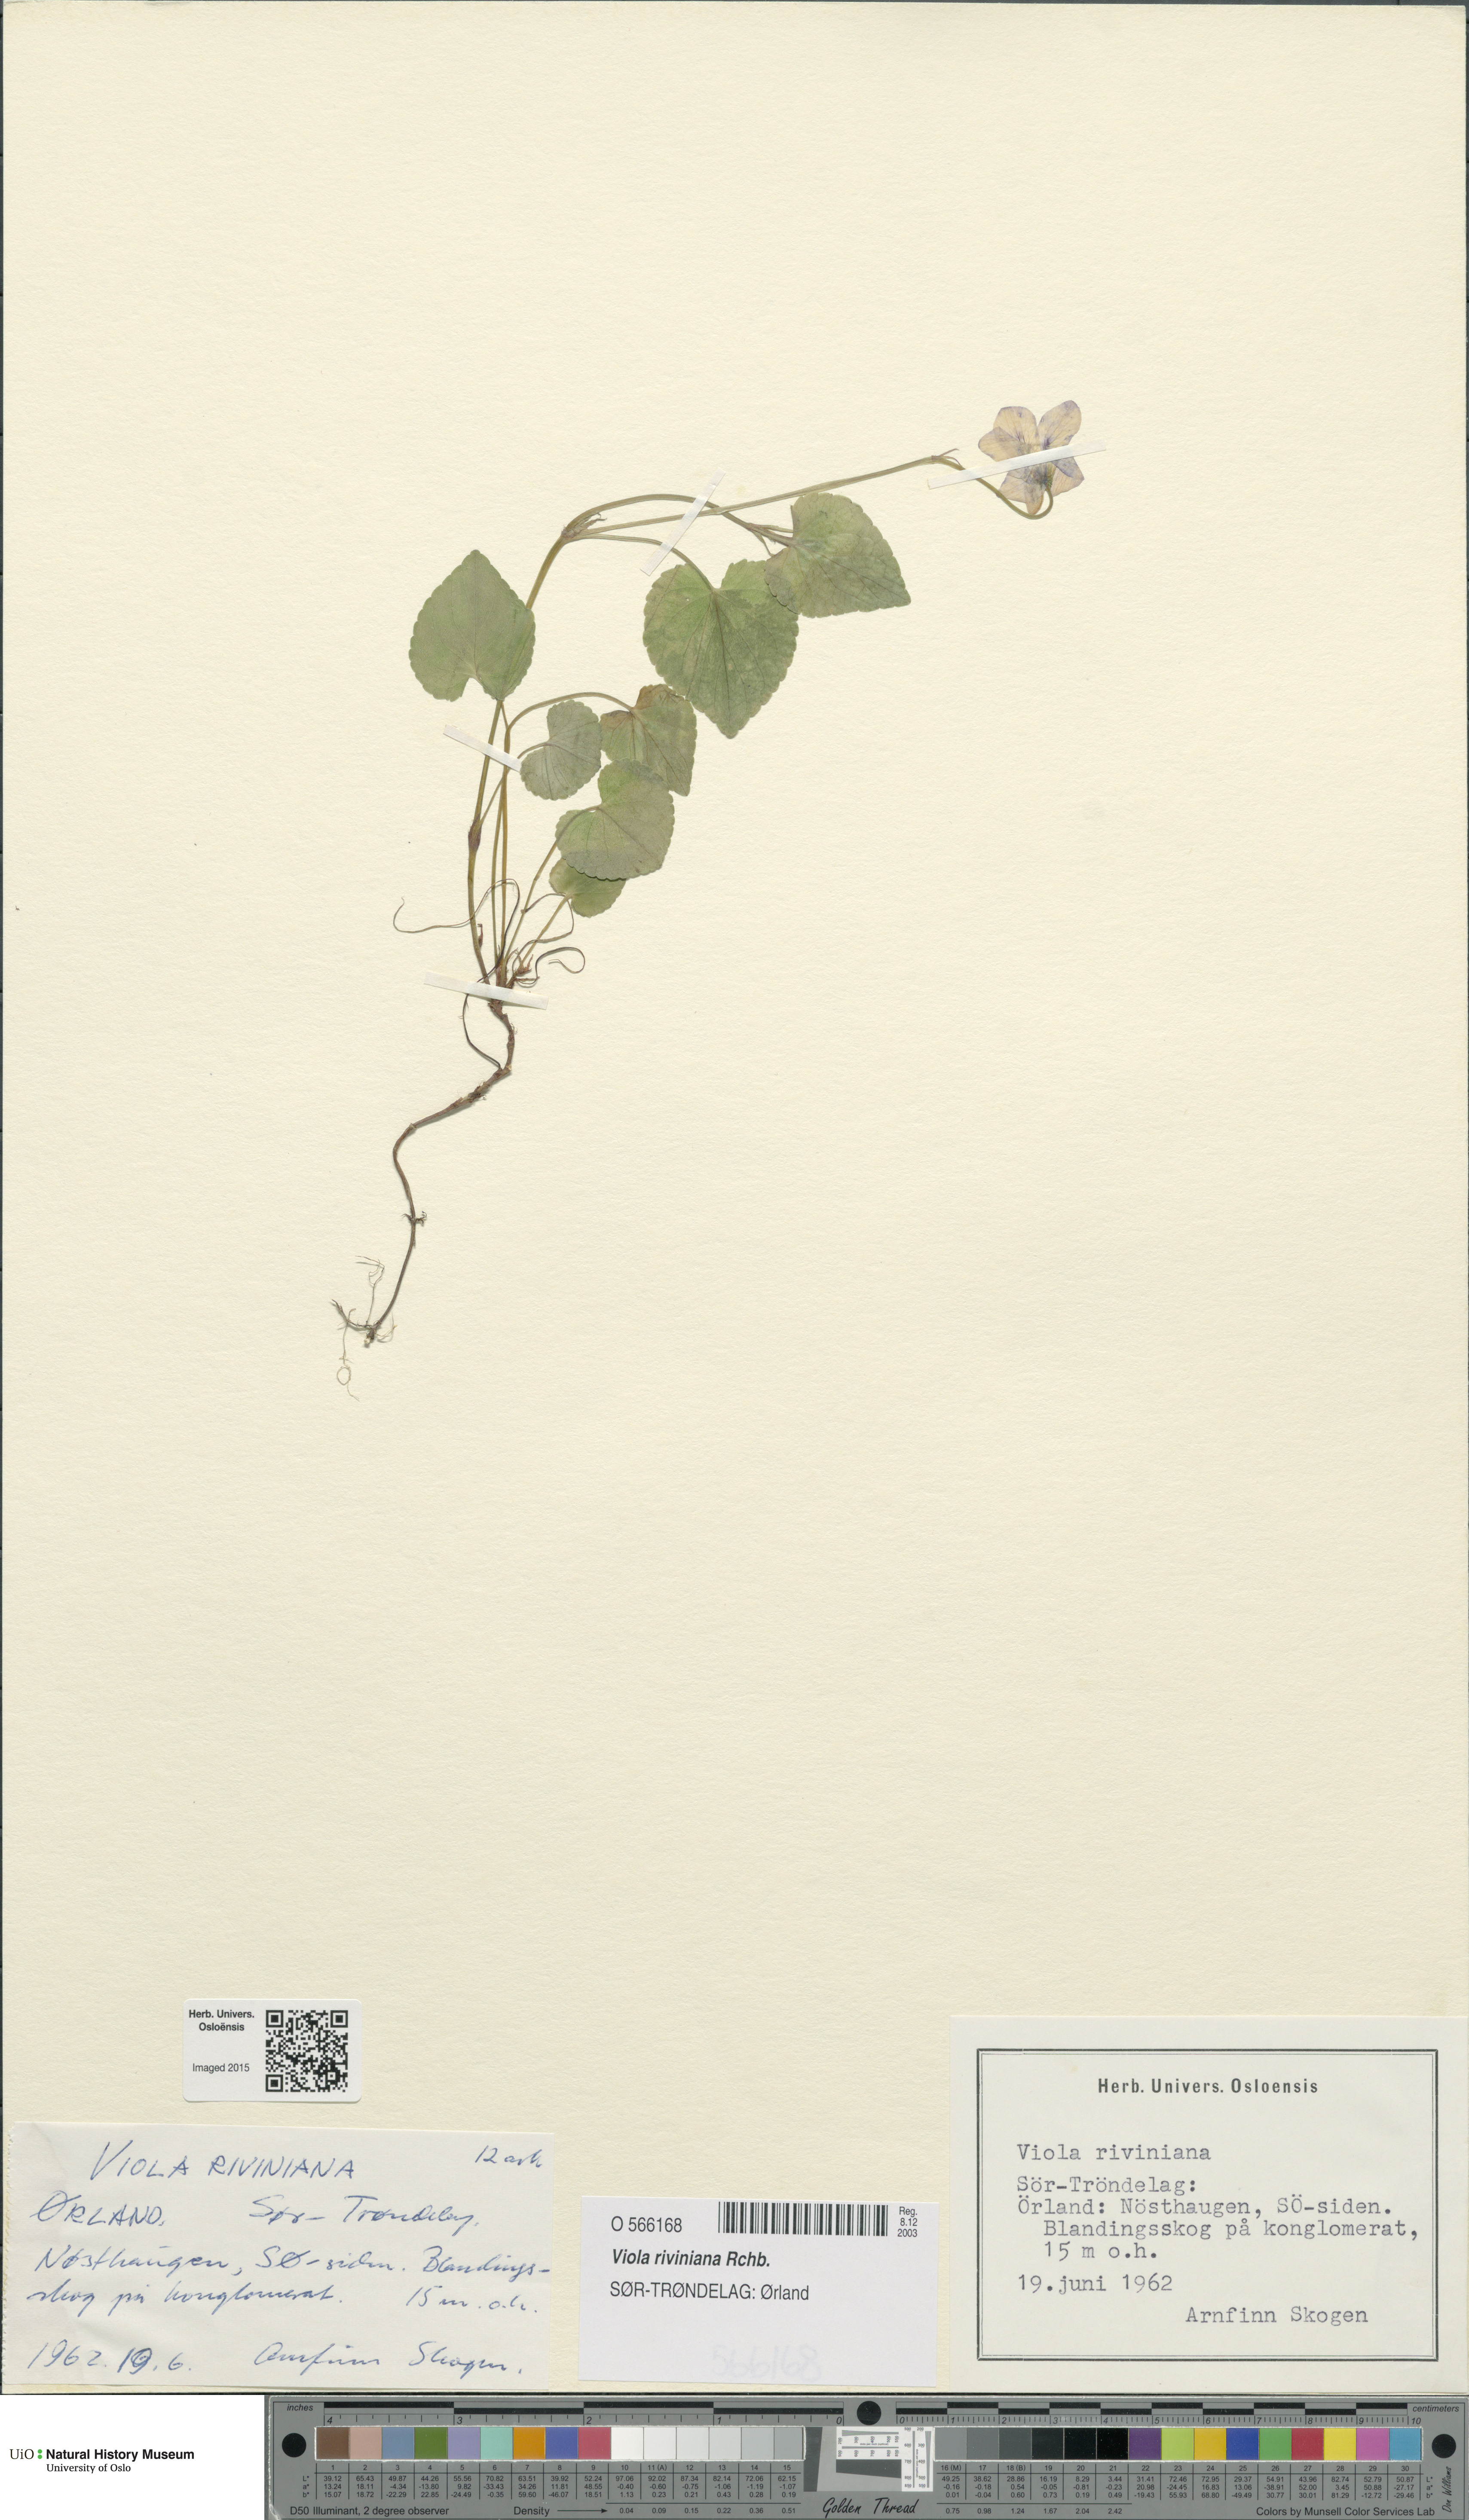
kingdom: Plantae
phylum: Tracheophyta
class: Magnoliopsida
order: Malpighiales
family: Violaceae
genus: Viola
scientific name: Viola riviniana
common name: Common dog-violet
